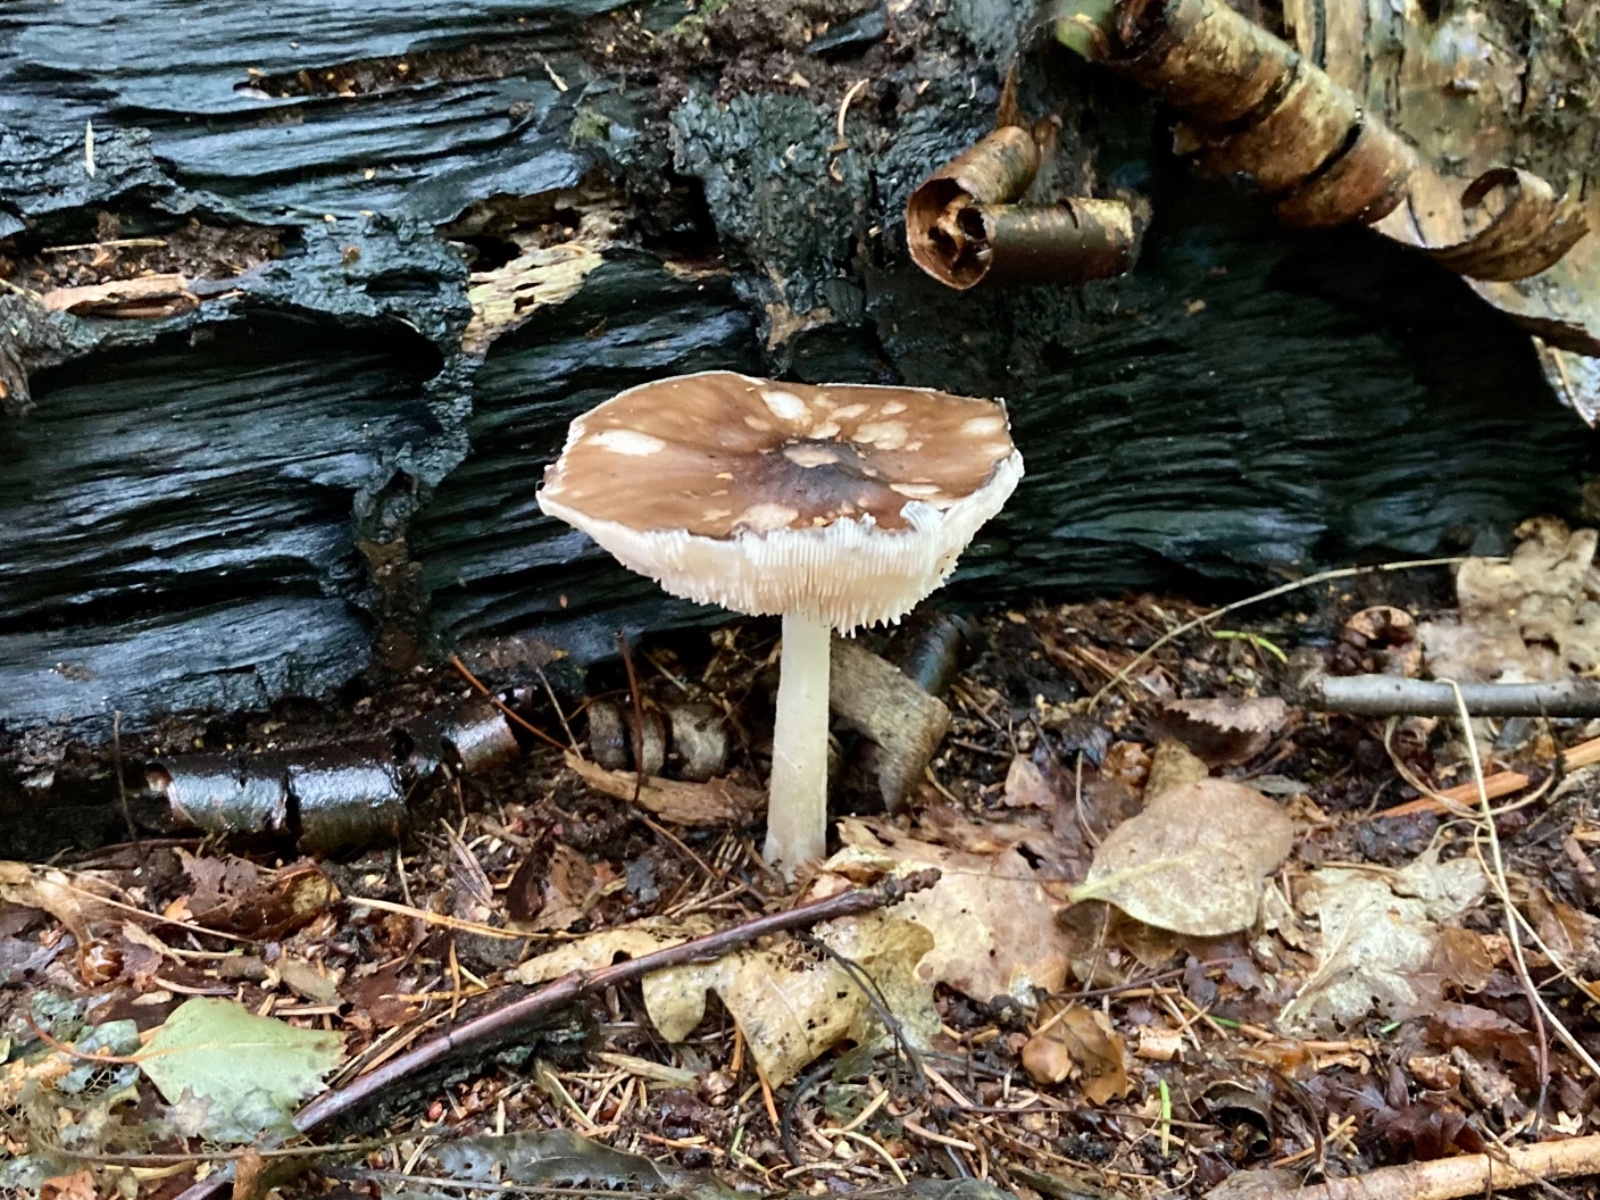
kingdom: Fungi
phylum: Basidiomycota
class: Agaricomycetes
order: Agaricales
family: Pluteaceae
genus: Pluteus
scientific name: Pluteus cervinus
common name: sodfarvet skærmhat
